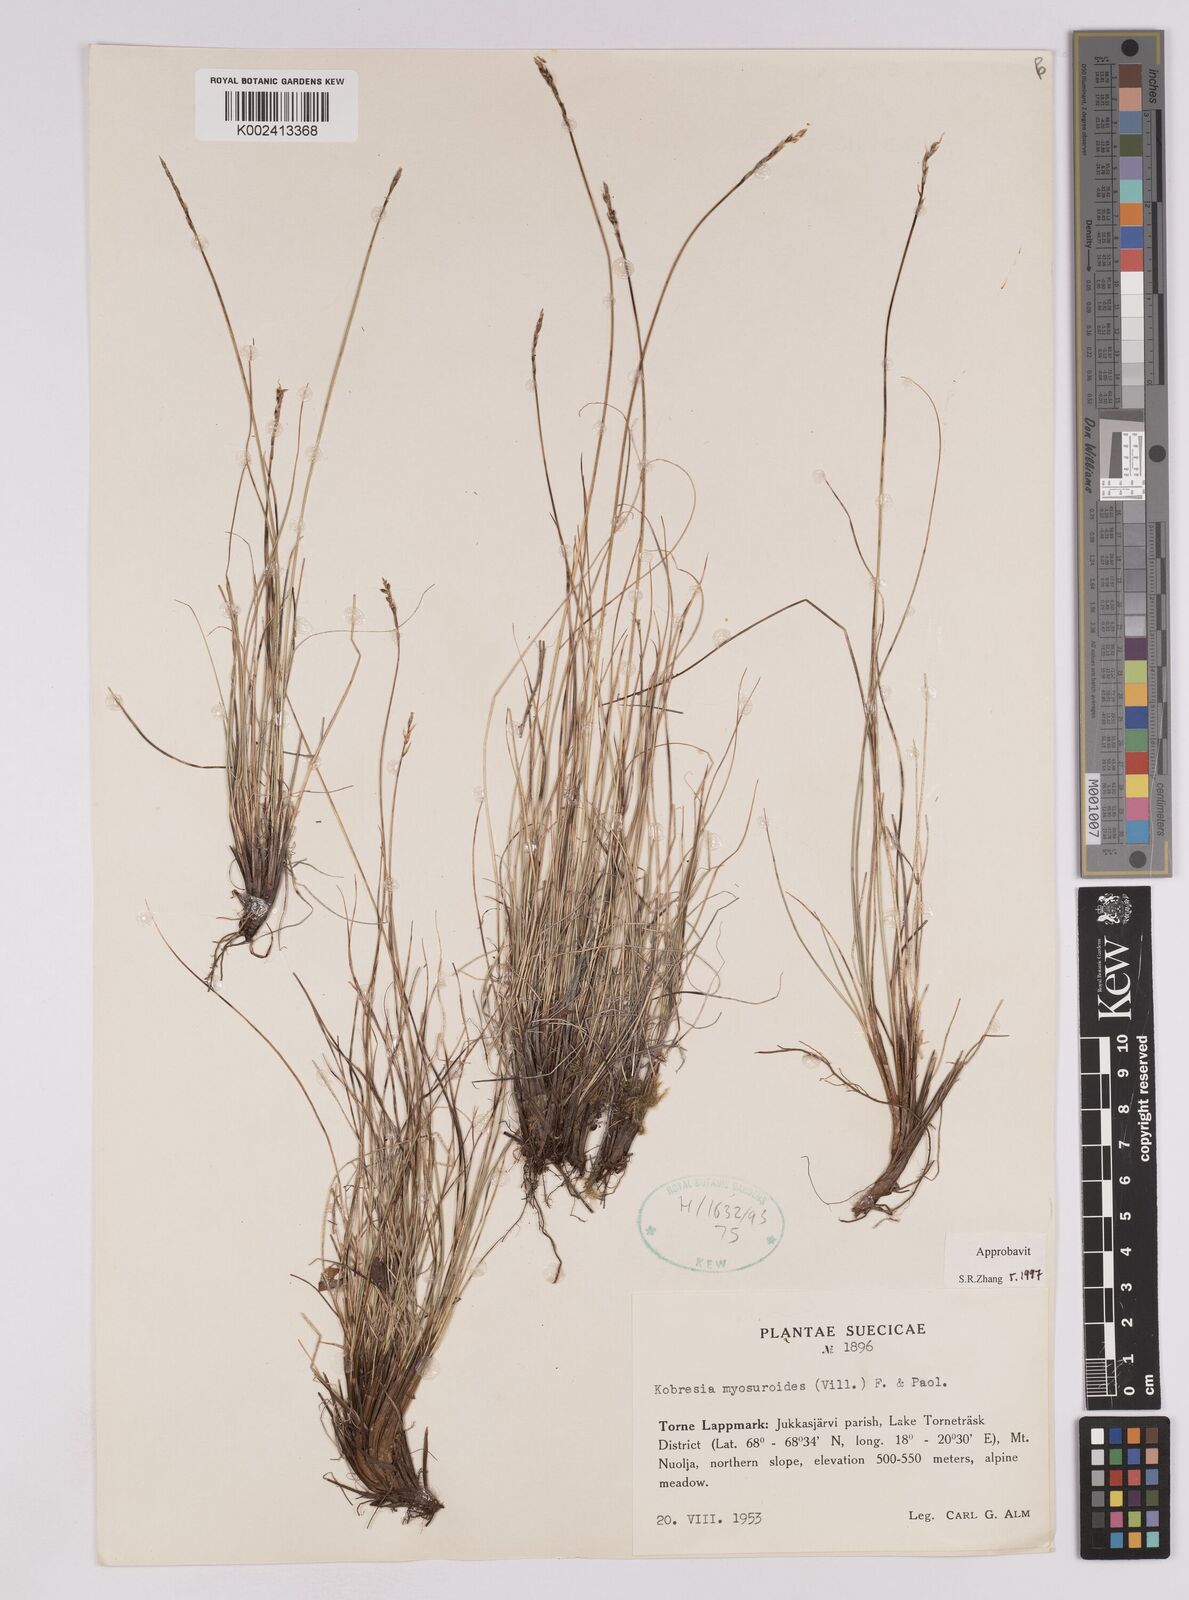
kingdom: Plantae
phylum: Tracheophyta
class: Liliopsida
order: Poales
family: Cyperaceae
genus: Carex
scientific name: Carex myosuroides
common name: Bellard's bog sedge
